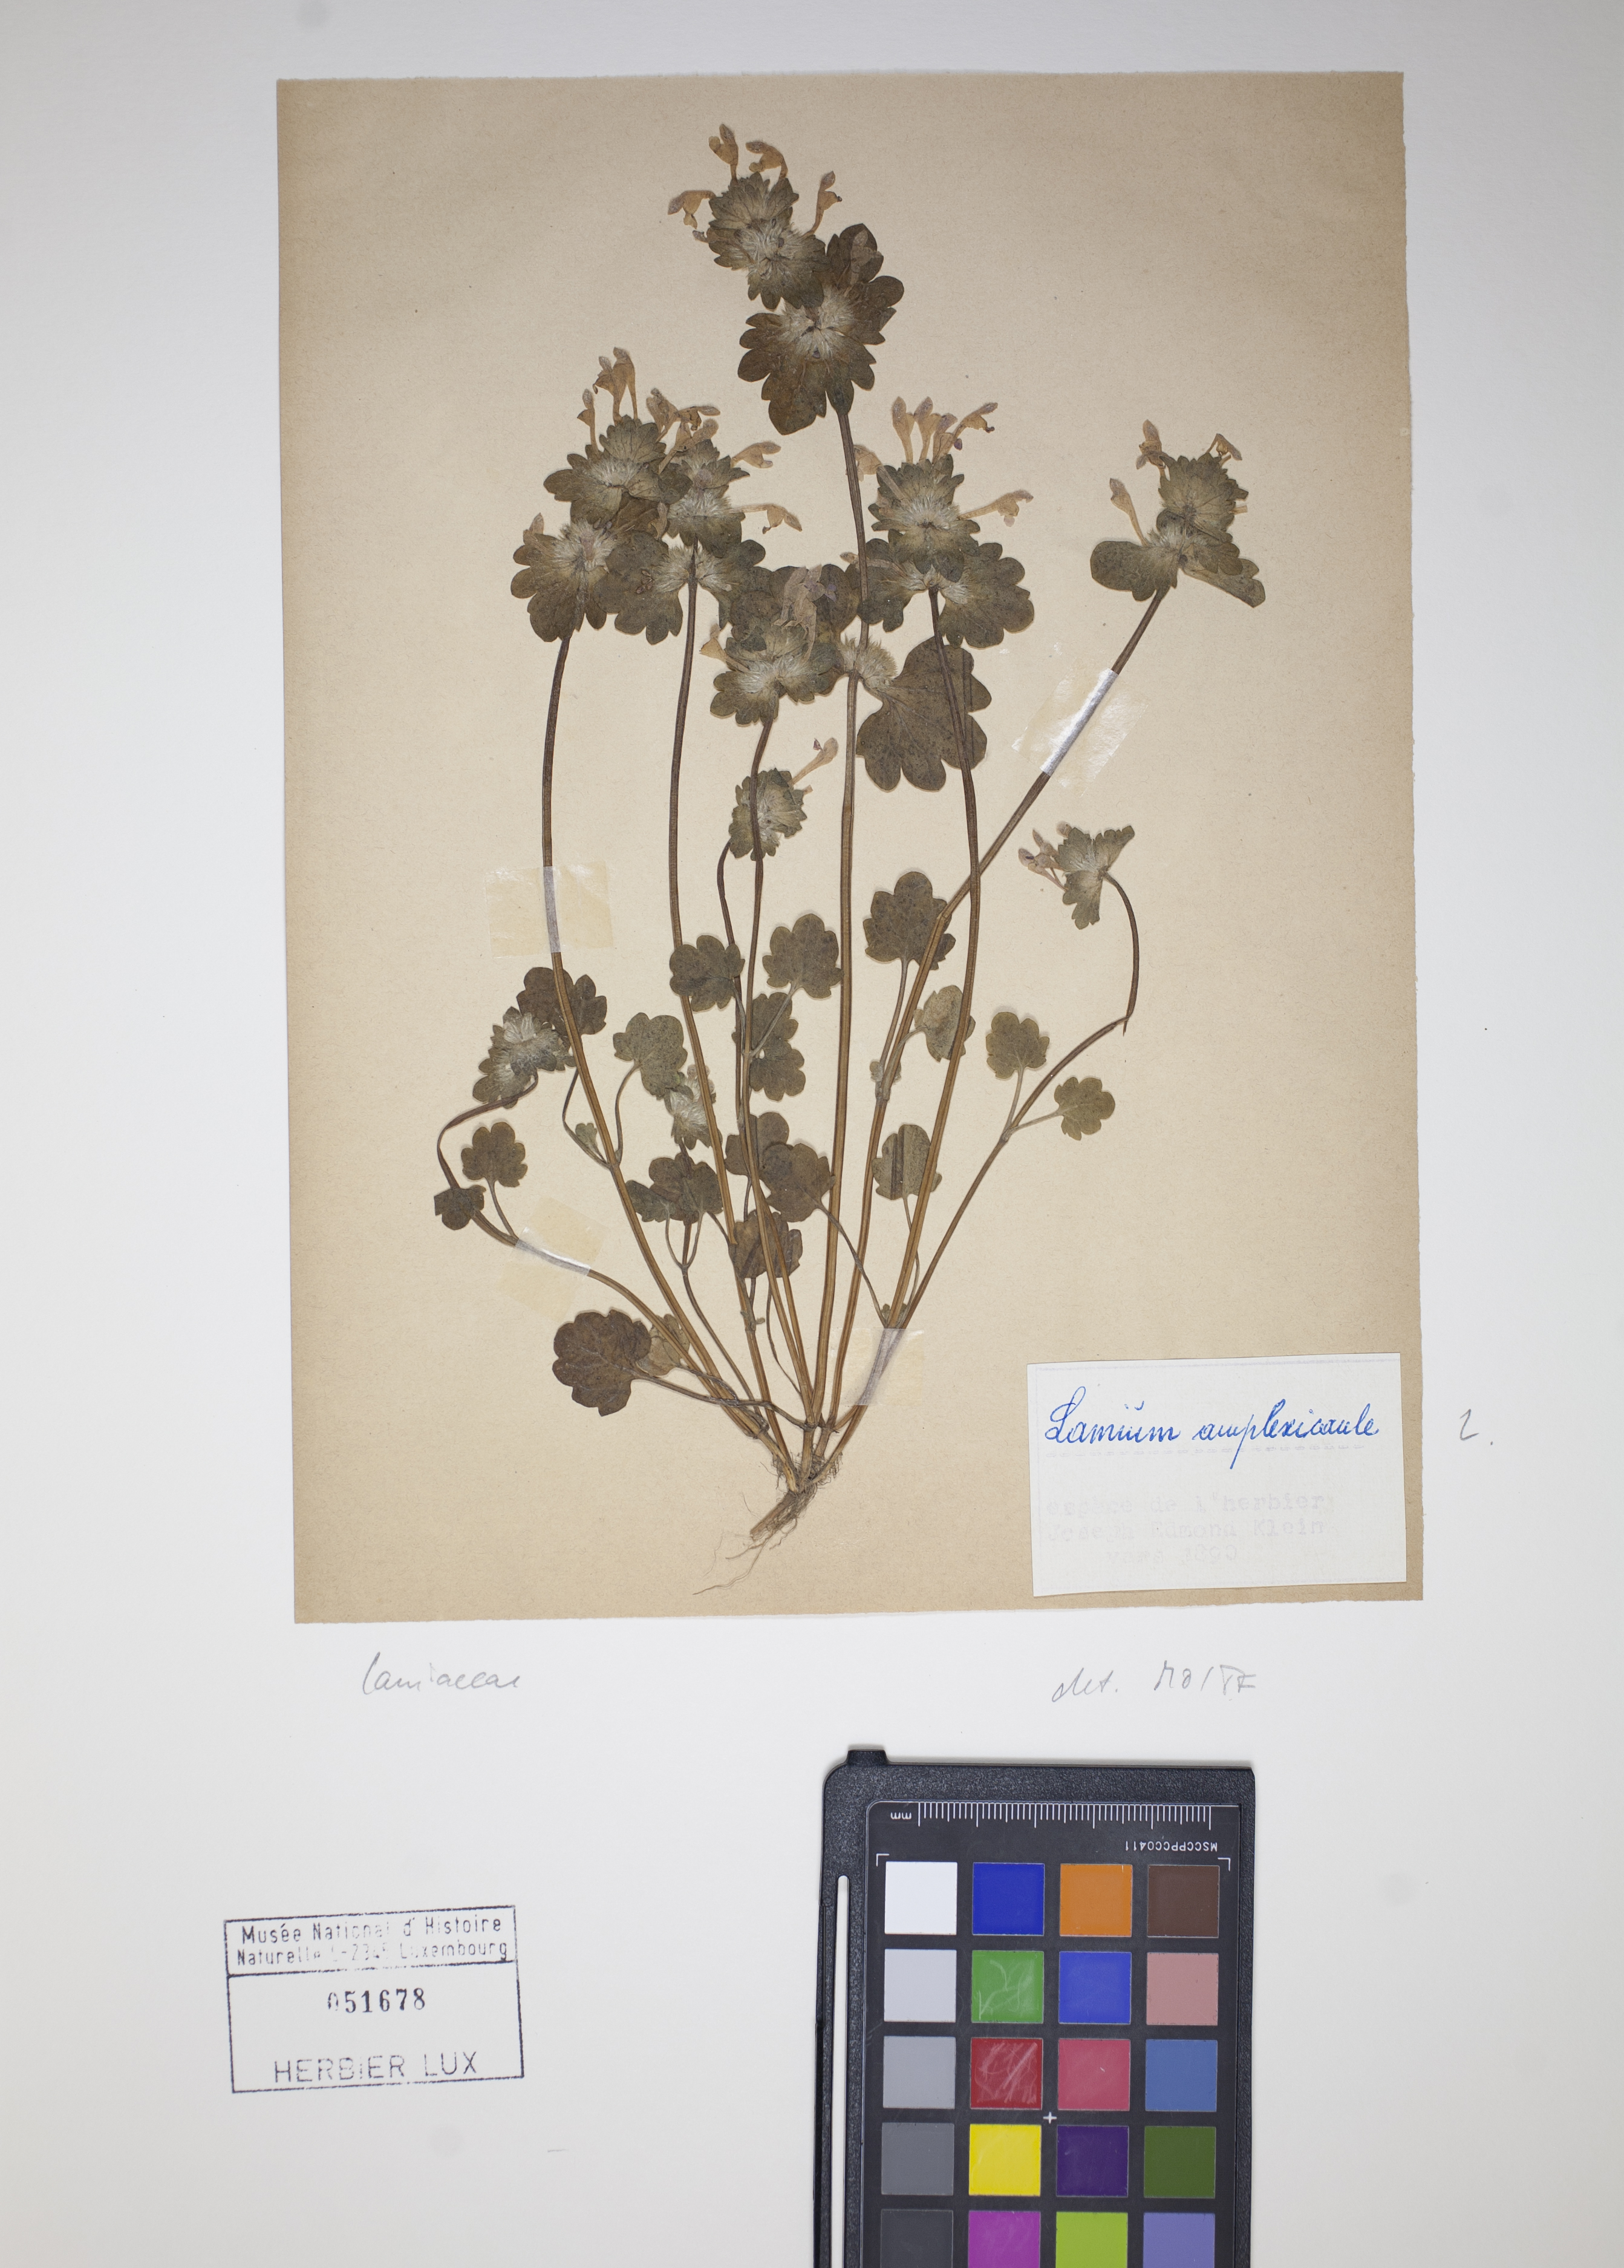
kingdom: Plantae
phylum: Tracheophyta
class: Magnoliopsida
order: Lamiales
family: Lamiaceae
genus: Lamium
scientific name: Lamium amplexicaule
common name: Henbit dead-nettle
